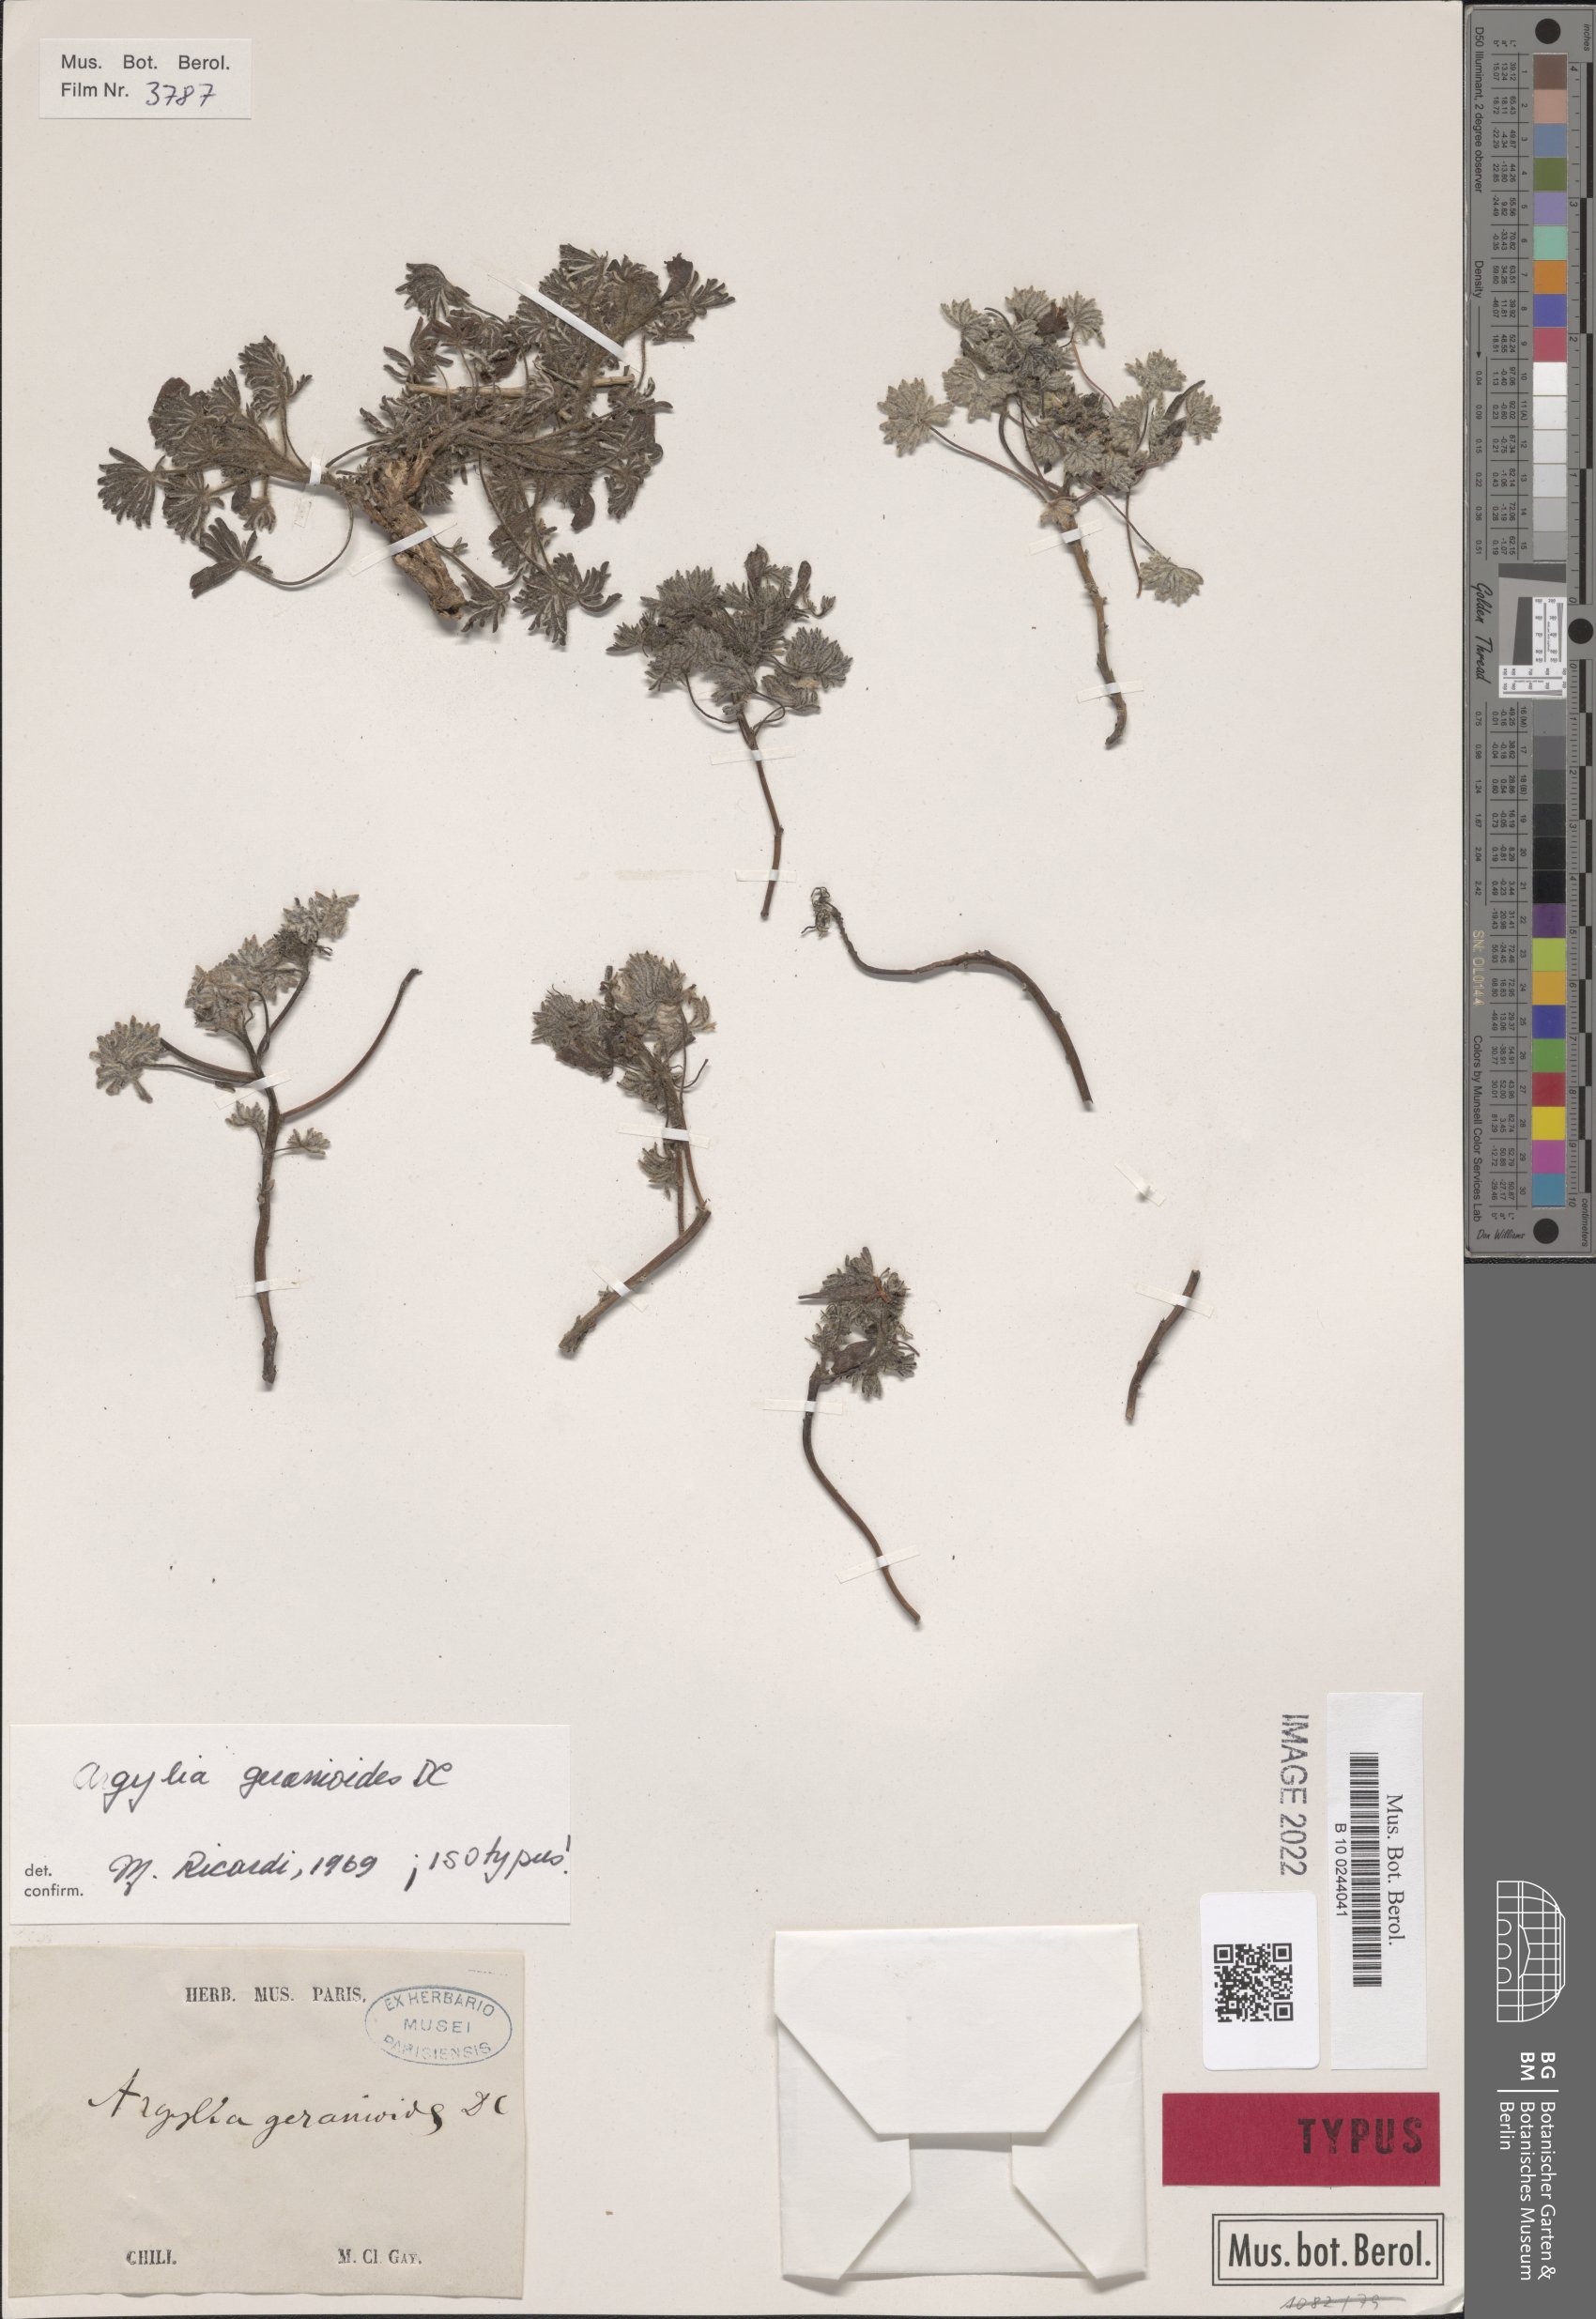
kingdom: Plantae
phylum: Tracheophyta
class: Magnoliopsida
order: Lamiales
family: Bignoniaceae
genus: Argylia
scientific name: Argylia geranioides
